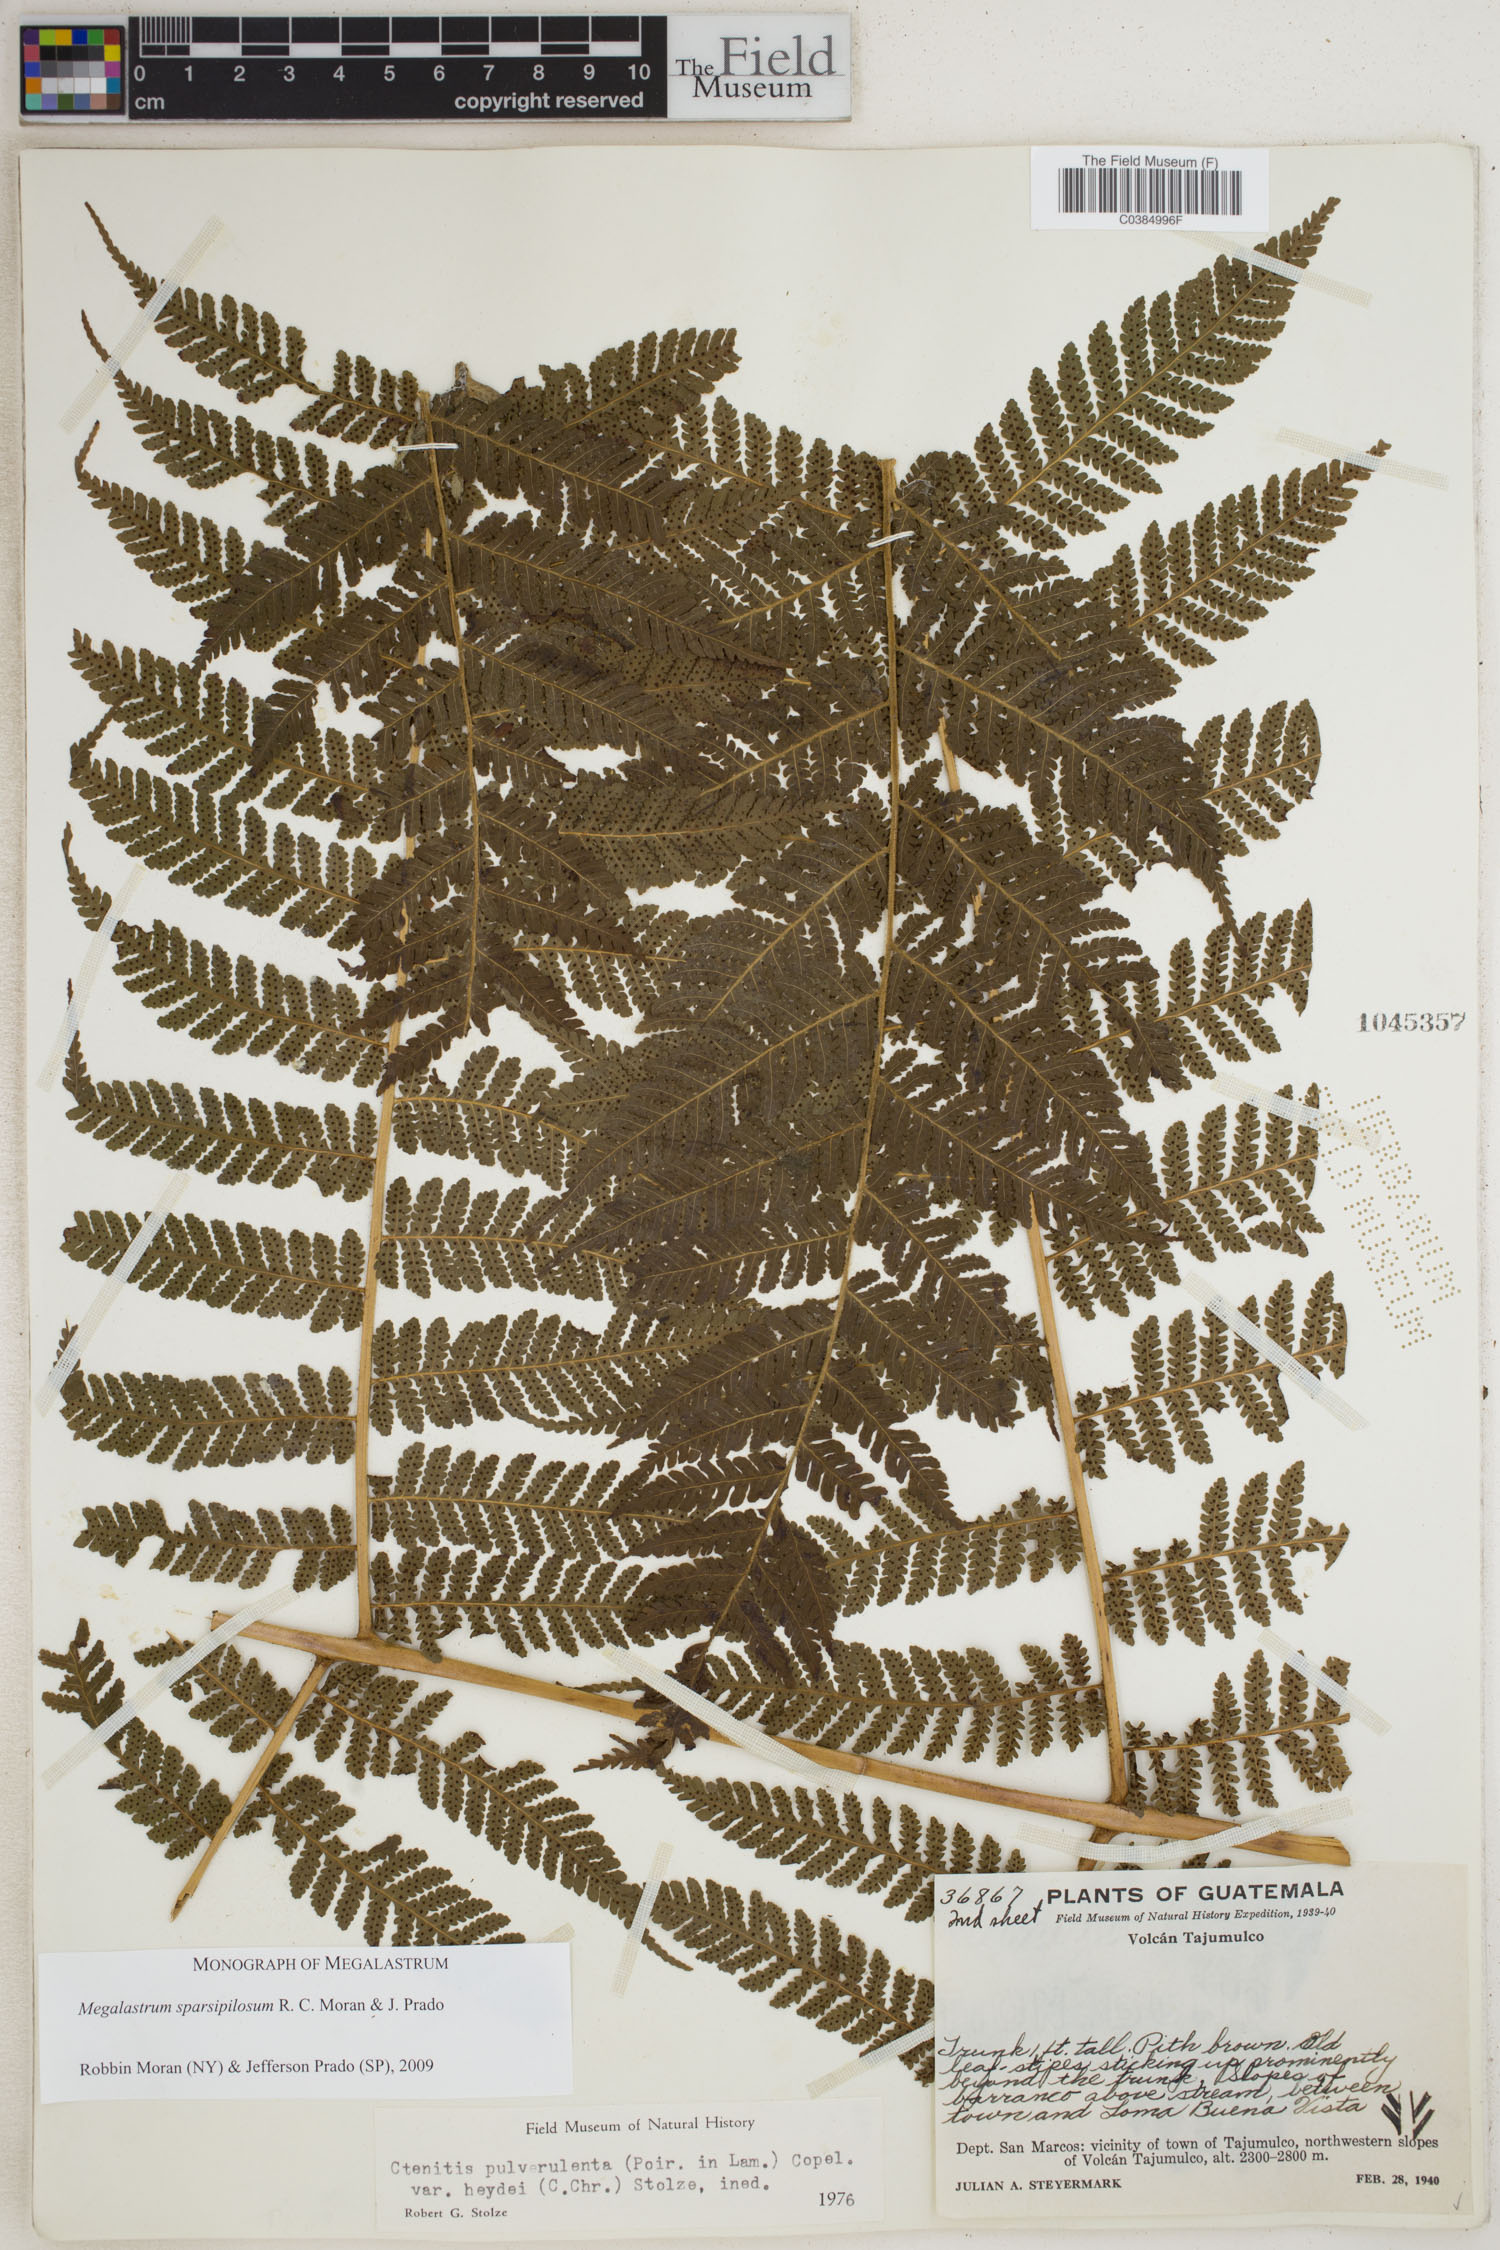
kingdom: Plantae
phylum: Tracheophyta
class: Polypodiopsida
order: Polypodiales
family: Dryopteridaceae
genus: Megalastrum
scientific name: Megalastrum sparsipilosum
